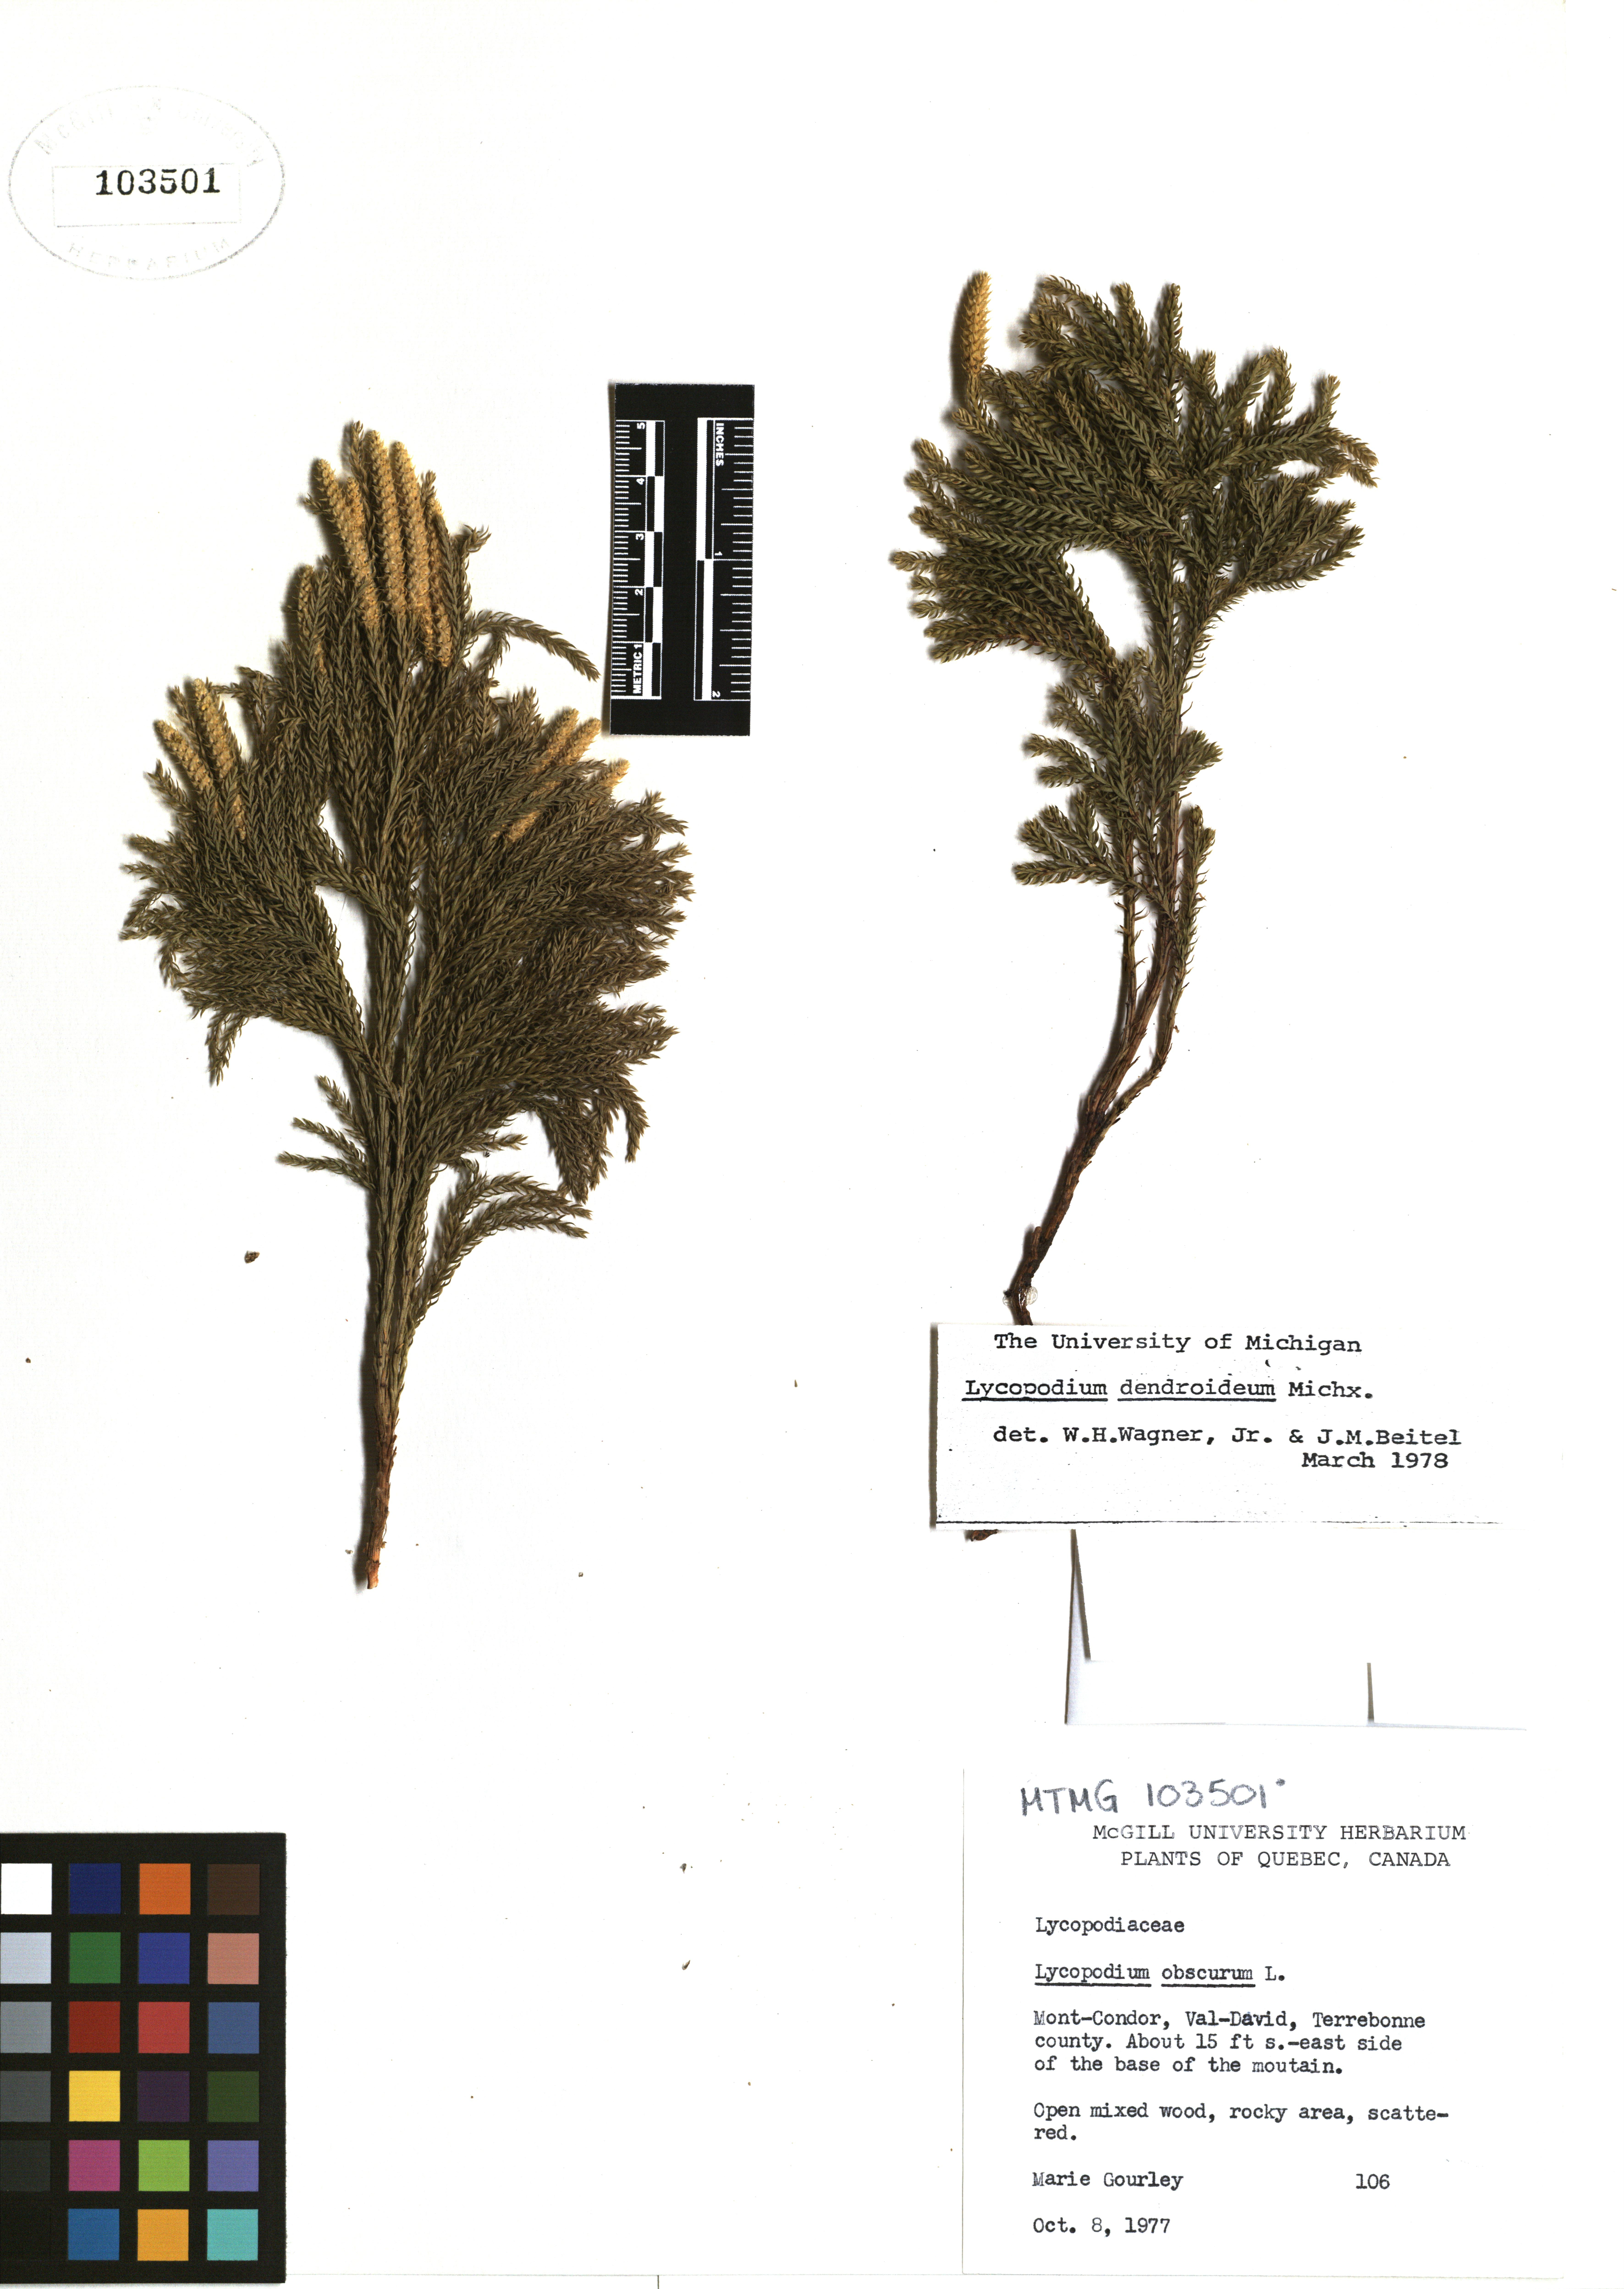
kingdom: Plantae
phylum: Tracheophyta
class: Lycopodiopsida
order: Lycopodiales
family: Lycopodiaceae
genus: Dendrolycopodium
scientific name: Dendrolycopodium dendroideum
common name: Northern tree-clubmoss
